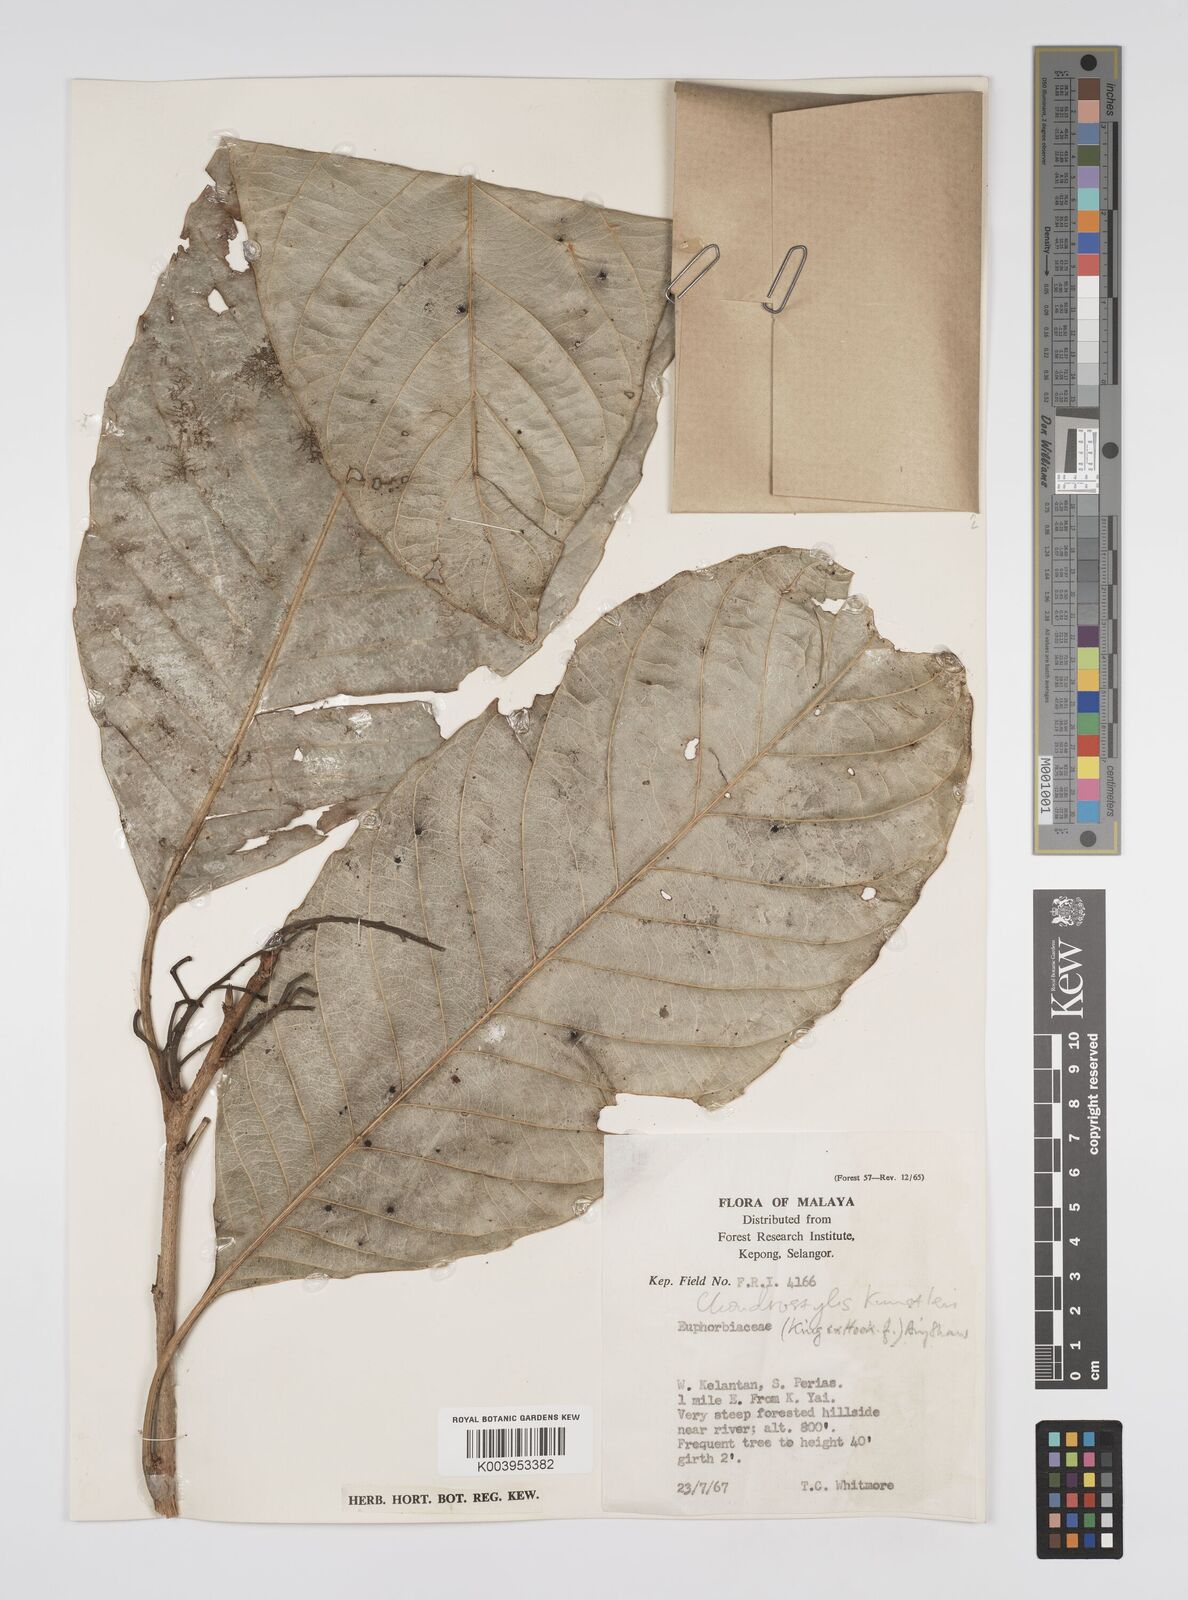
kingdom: Plantae
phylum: Tracheophyta
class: Magnoliopsida
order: Malpighiales
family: Euphorbiaceae
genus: Chondrostylis
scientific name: Chondrostylis kunstleri
